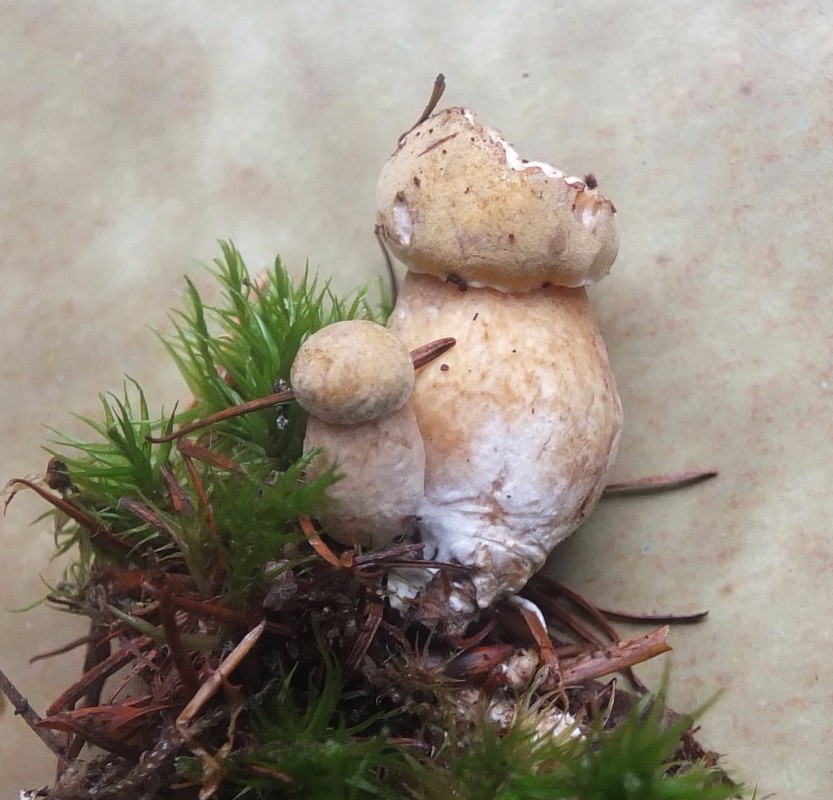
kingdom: Fungi
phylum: Basidiomycota
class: Agaricomycetes
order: Boletales
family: Boletaceae
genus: Tylopilus
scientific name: Tylopilus felleus
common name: galderørhat
